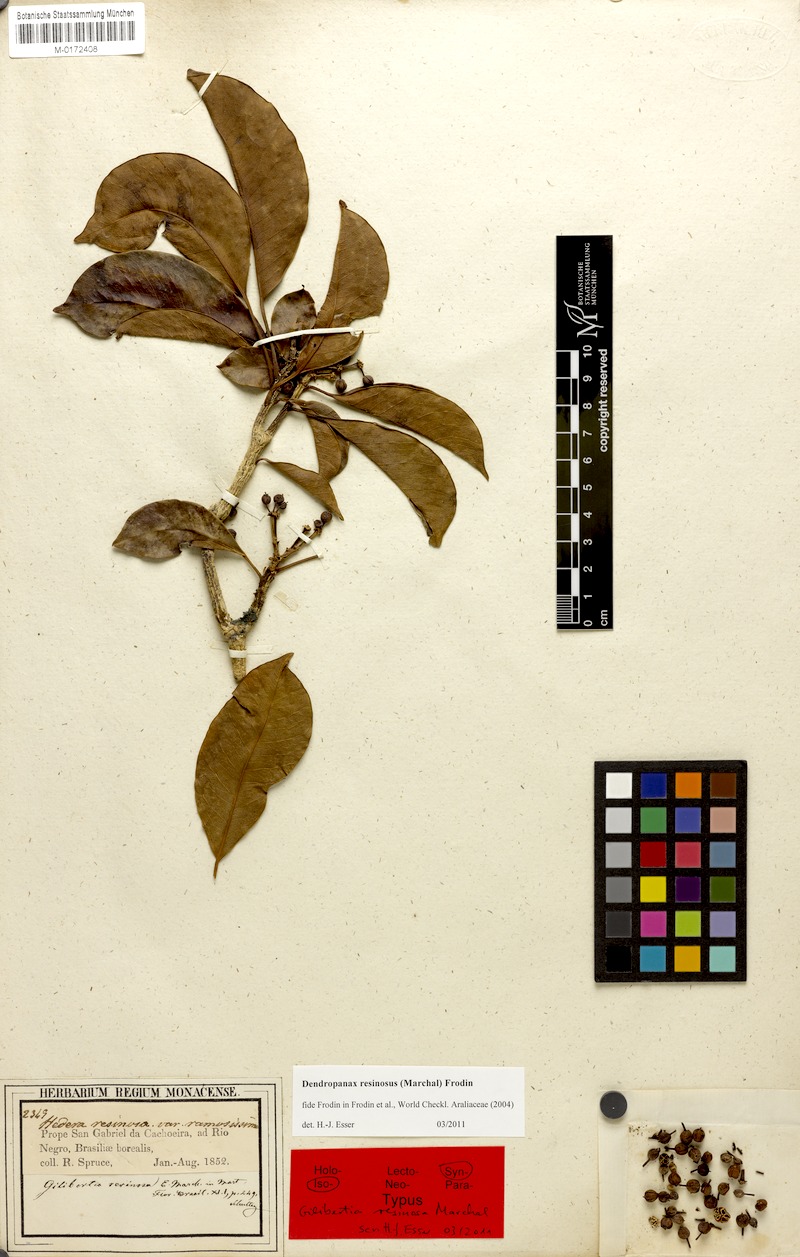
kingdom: Plantae
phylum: Tracheophyta
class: Magnoliopsida
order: Apiales
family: Araliaceae
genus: Dendropanax
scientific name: Dendropanax resinosus
